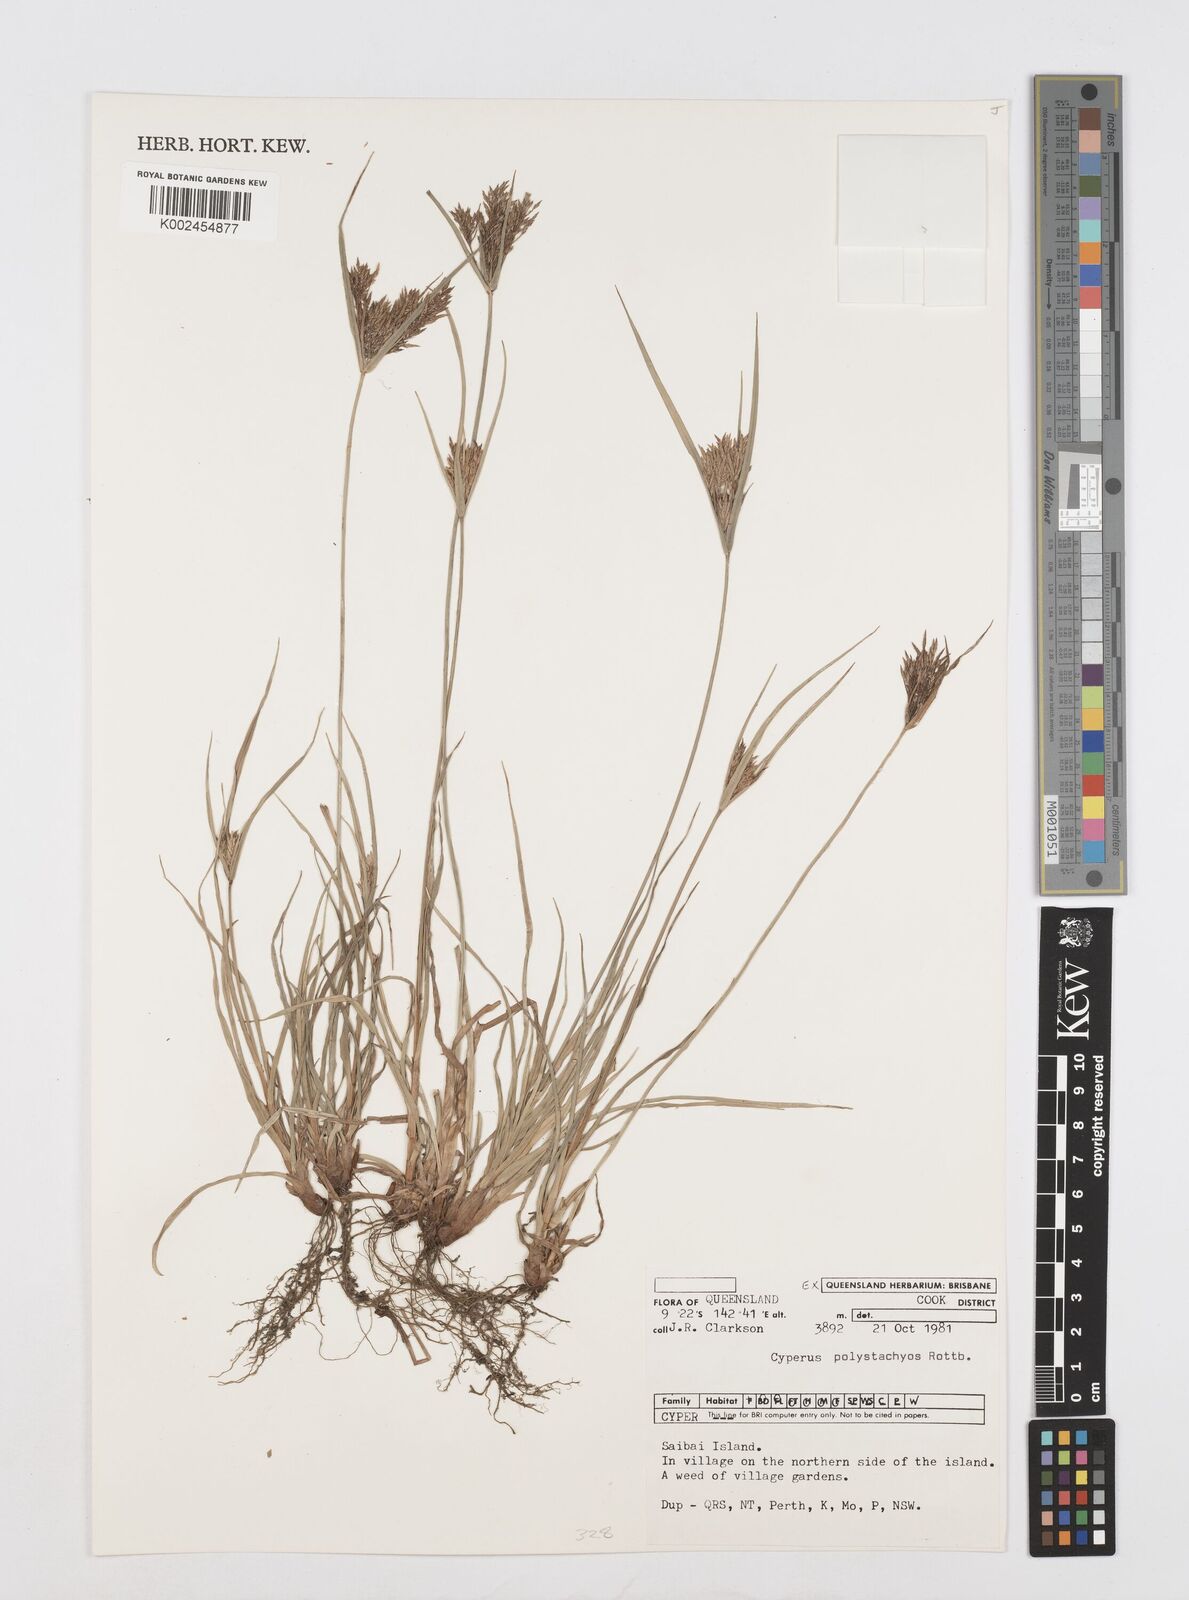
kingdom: Plantae
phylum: Tracheophyta
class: Liliopsida
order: Poales
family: Cyperaceae
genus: Cyperus
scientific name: Cyperus polystachyos
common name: Bunchy flat sedge
